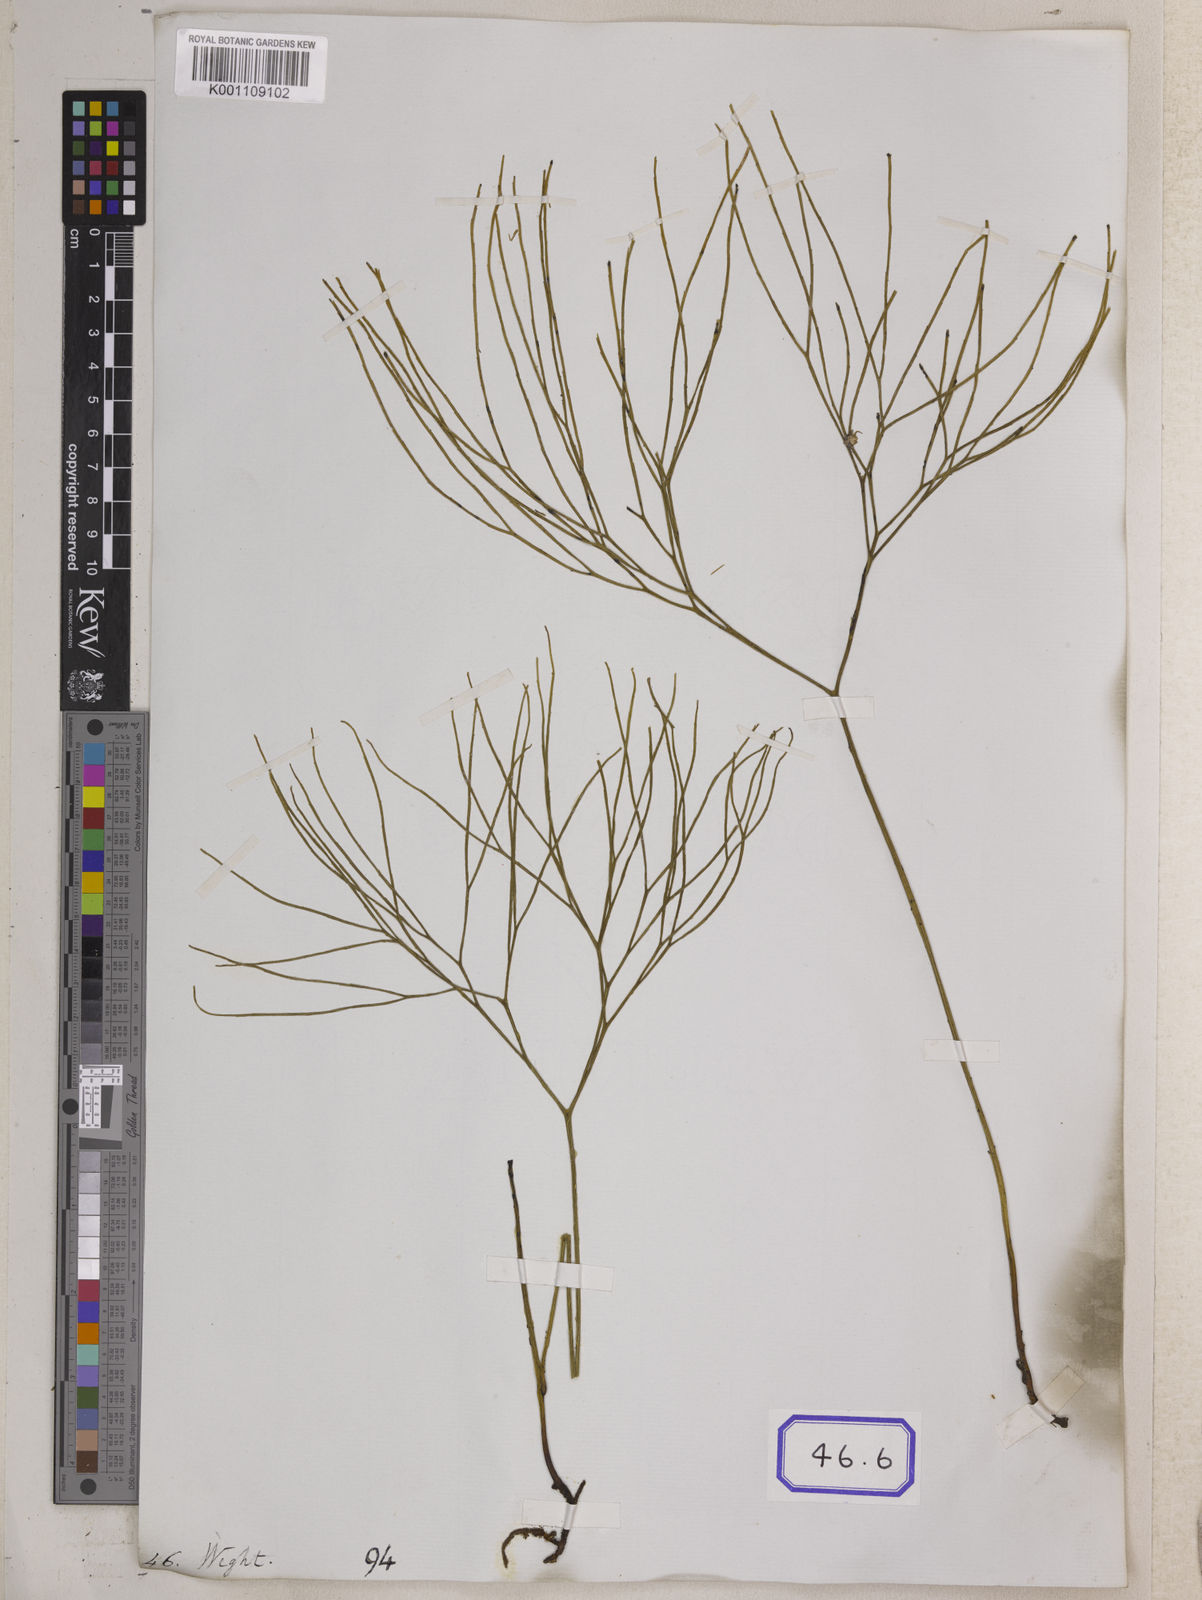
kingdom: Plantae
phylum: Tracheophyta
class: Polypodiopsida
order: Psilotales
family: Psilotaceae
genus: Psilotum
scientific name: Psilotum nudum
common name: Skeleton fork fern
